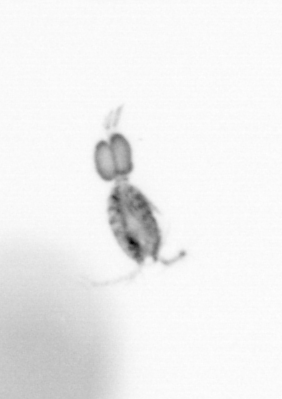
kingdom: Animalia
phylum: Arthropoda
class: Copepoda
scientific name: Copepoda
